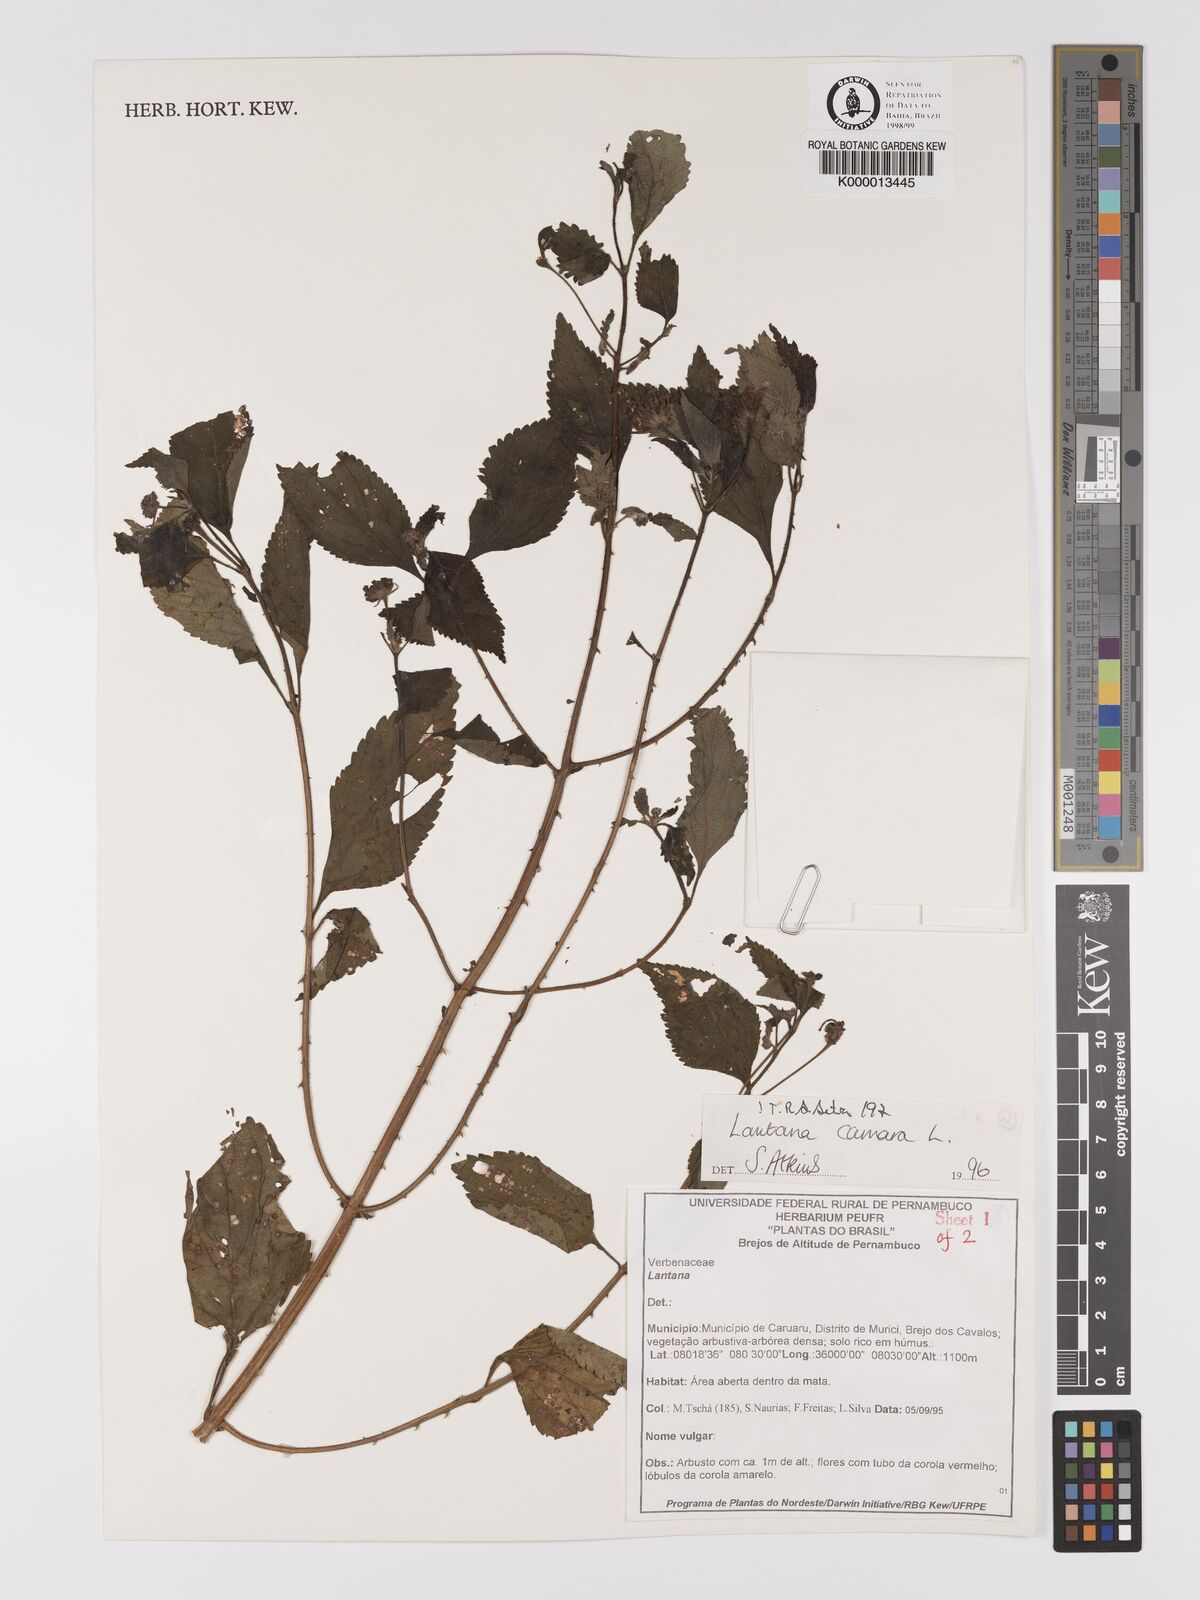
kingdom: Plantae
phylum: Tracheophyta
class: Magnoliopsida
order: Lamiales
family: Verbenaceae
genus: Lantana
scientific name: Lantana camara
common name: Lantana
